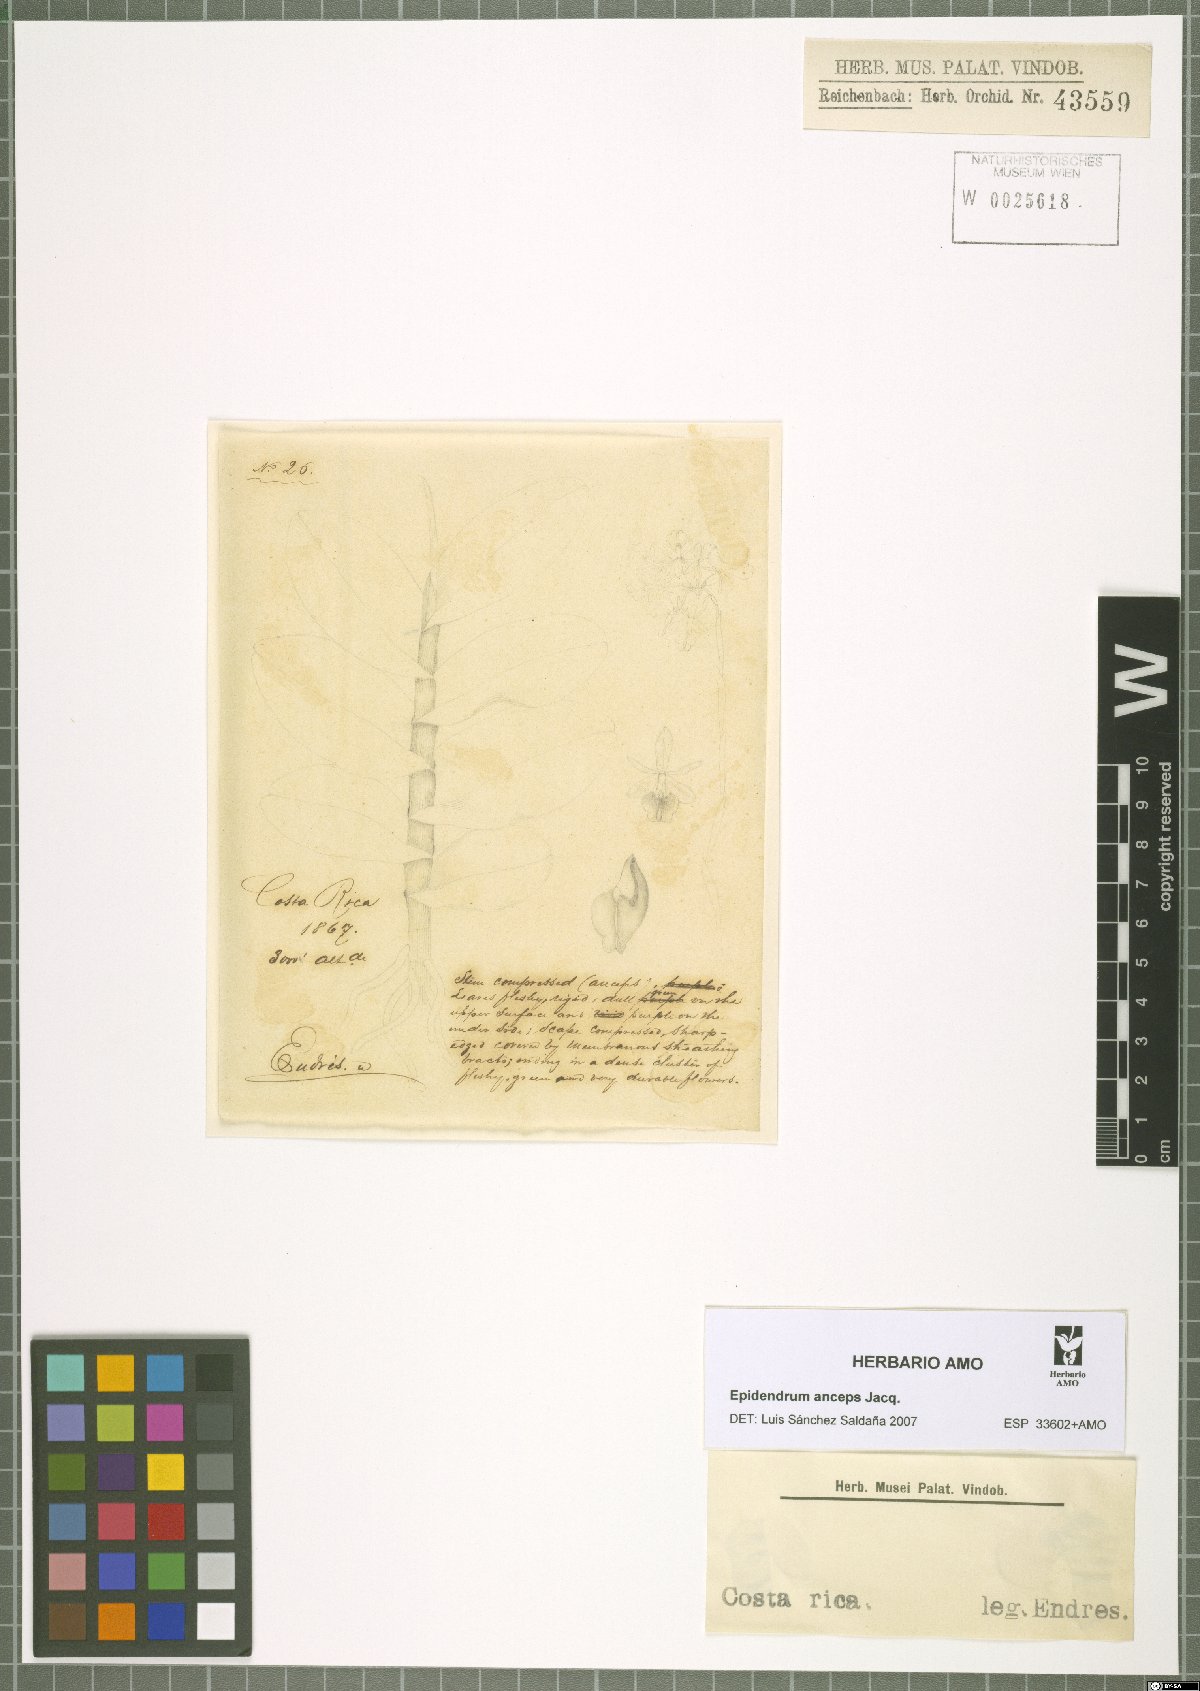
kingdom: Plantae
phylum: Tracheophyta
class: Liliopsida
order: Asparagales
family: Orchidaceae
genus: Epidendrum
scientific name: Epidendrum anceps
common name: Brown-flower butterfly orchid
